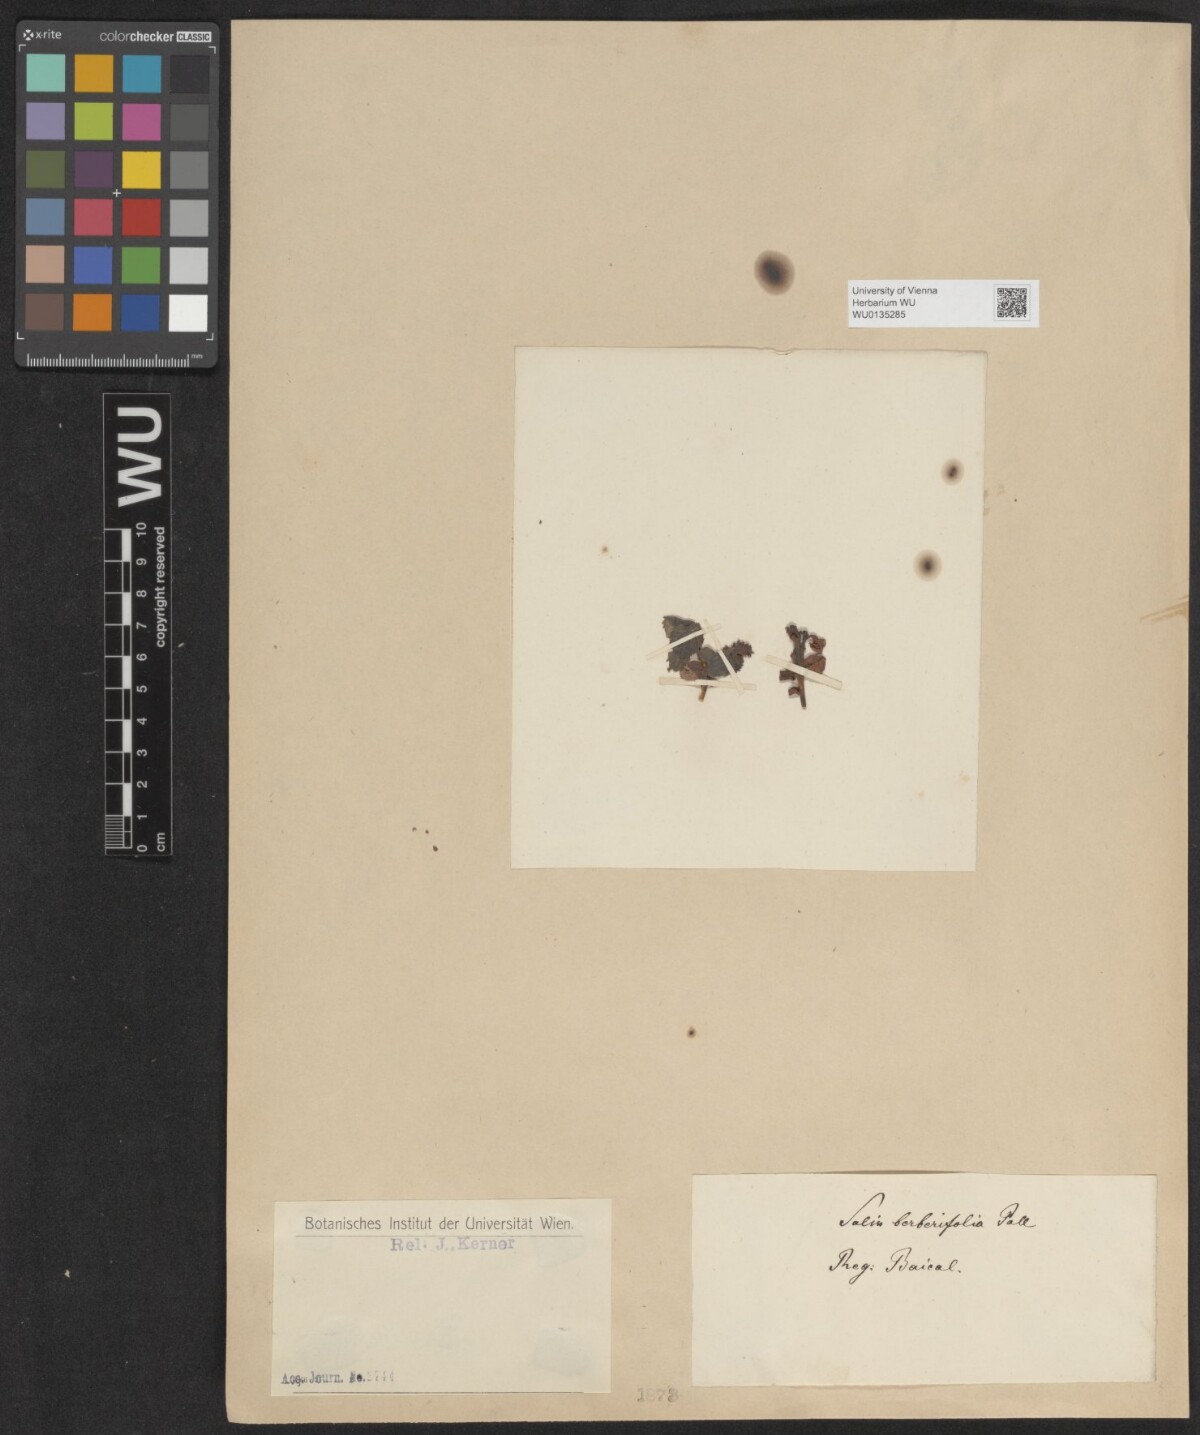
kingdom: Plantae
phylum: Tracheophyta
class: Magnoliopsida
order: Malpighiales
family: Salicaceae
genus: Salix
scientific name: Salix berberifolia
